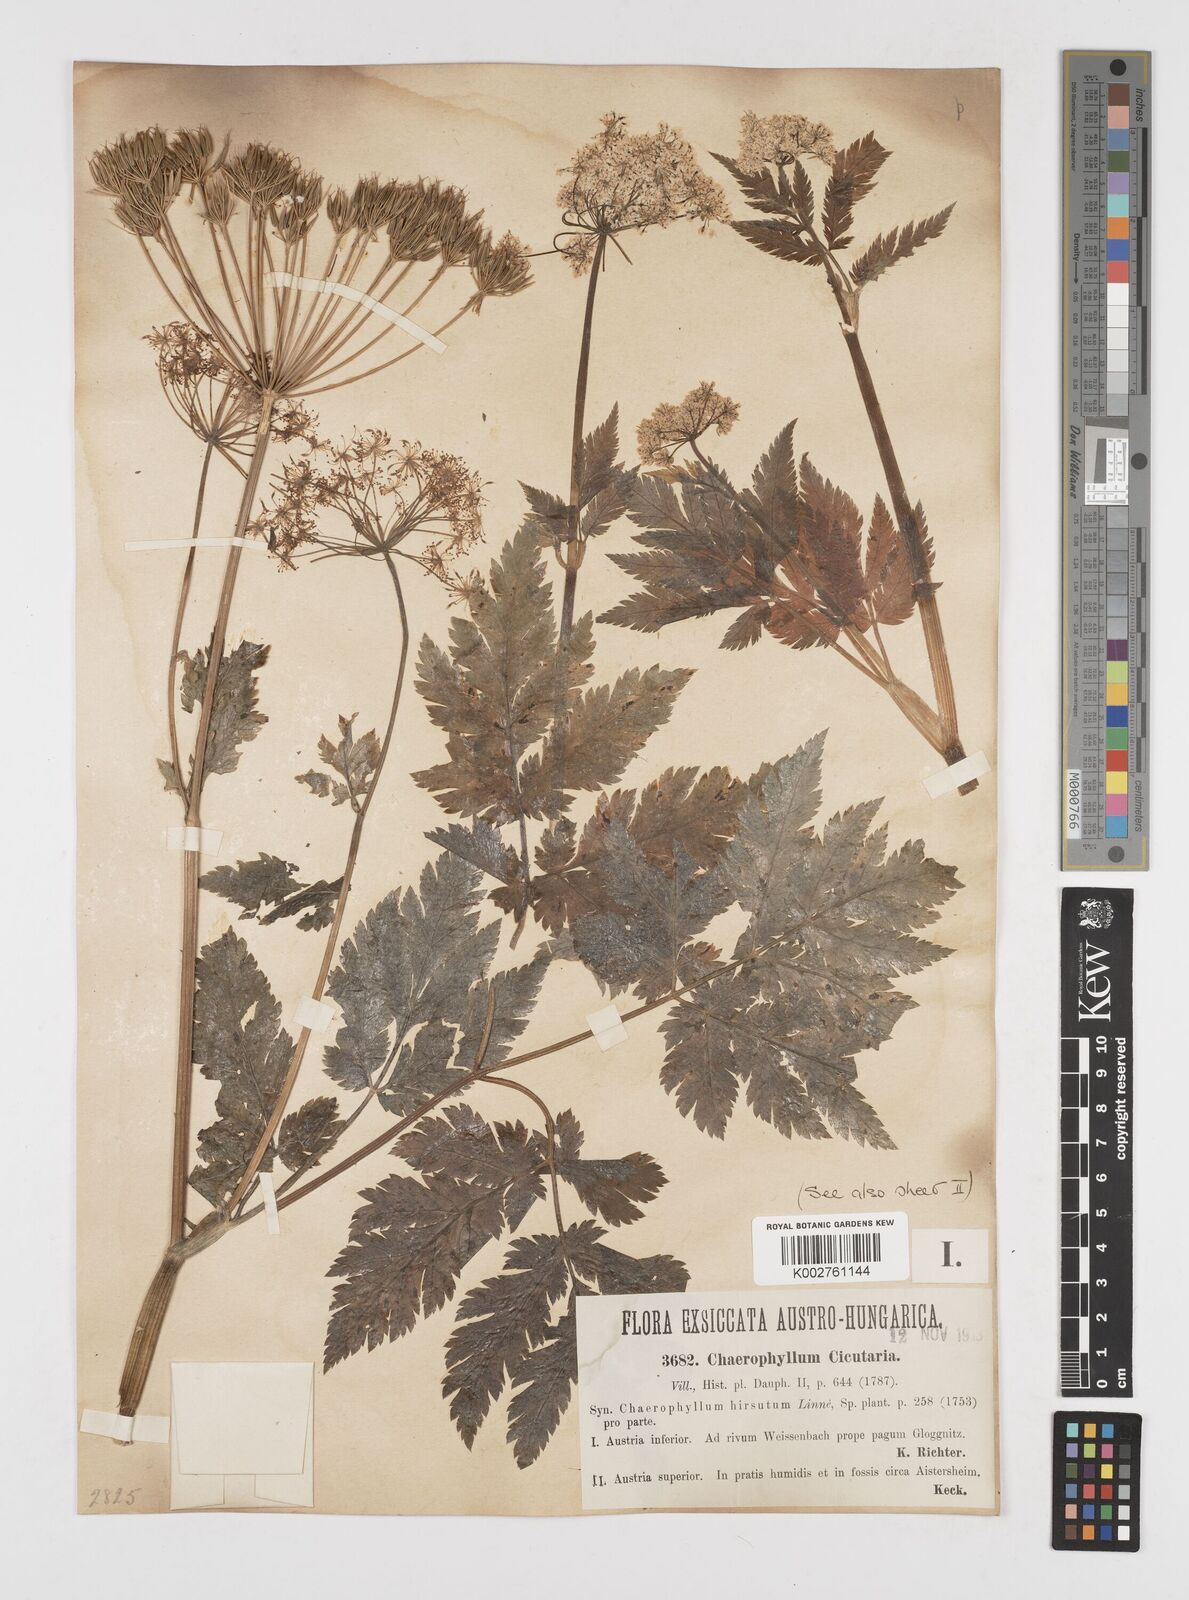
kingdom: Plantae
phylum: Tracheophyta
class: Magnoliopsida
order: Apiales
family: Apiaceae
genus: Chaerophyllum
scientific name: Chaerophyllum hirsutum
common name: Hairy chervil
